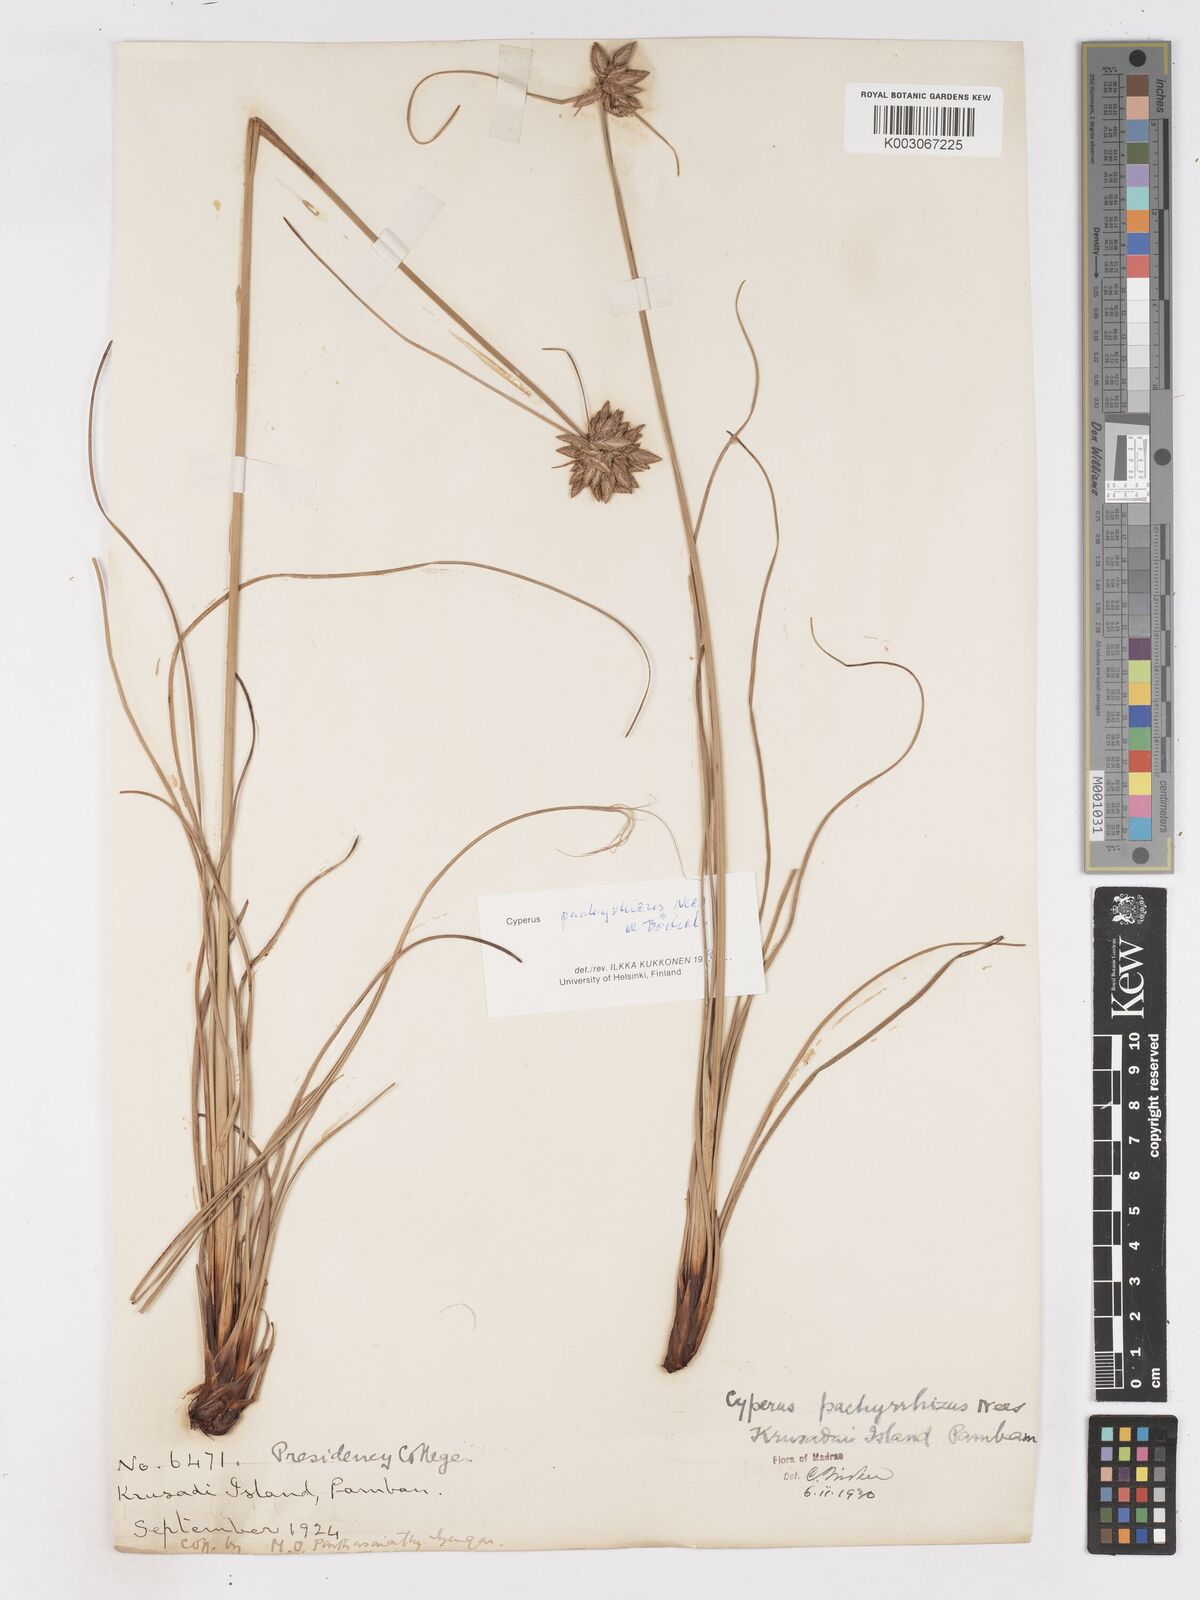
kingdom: Plantae
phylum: Tracheophyta
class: Liliopsida
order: Poales
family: Cyperaceae
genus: Cyperus
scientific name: Cyperus pachyrhizus
